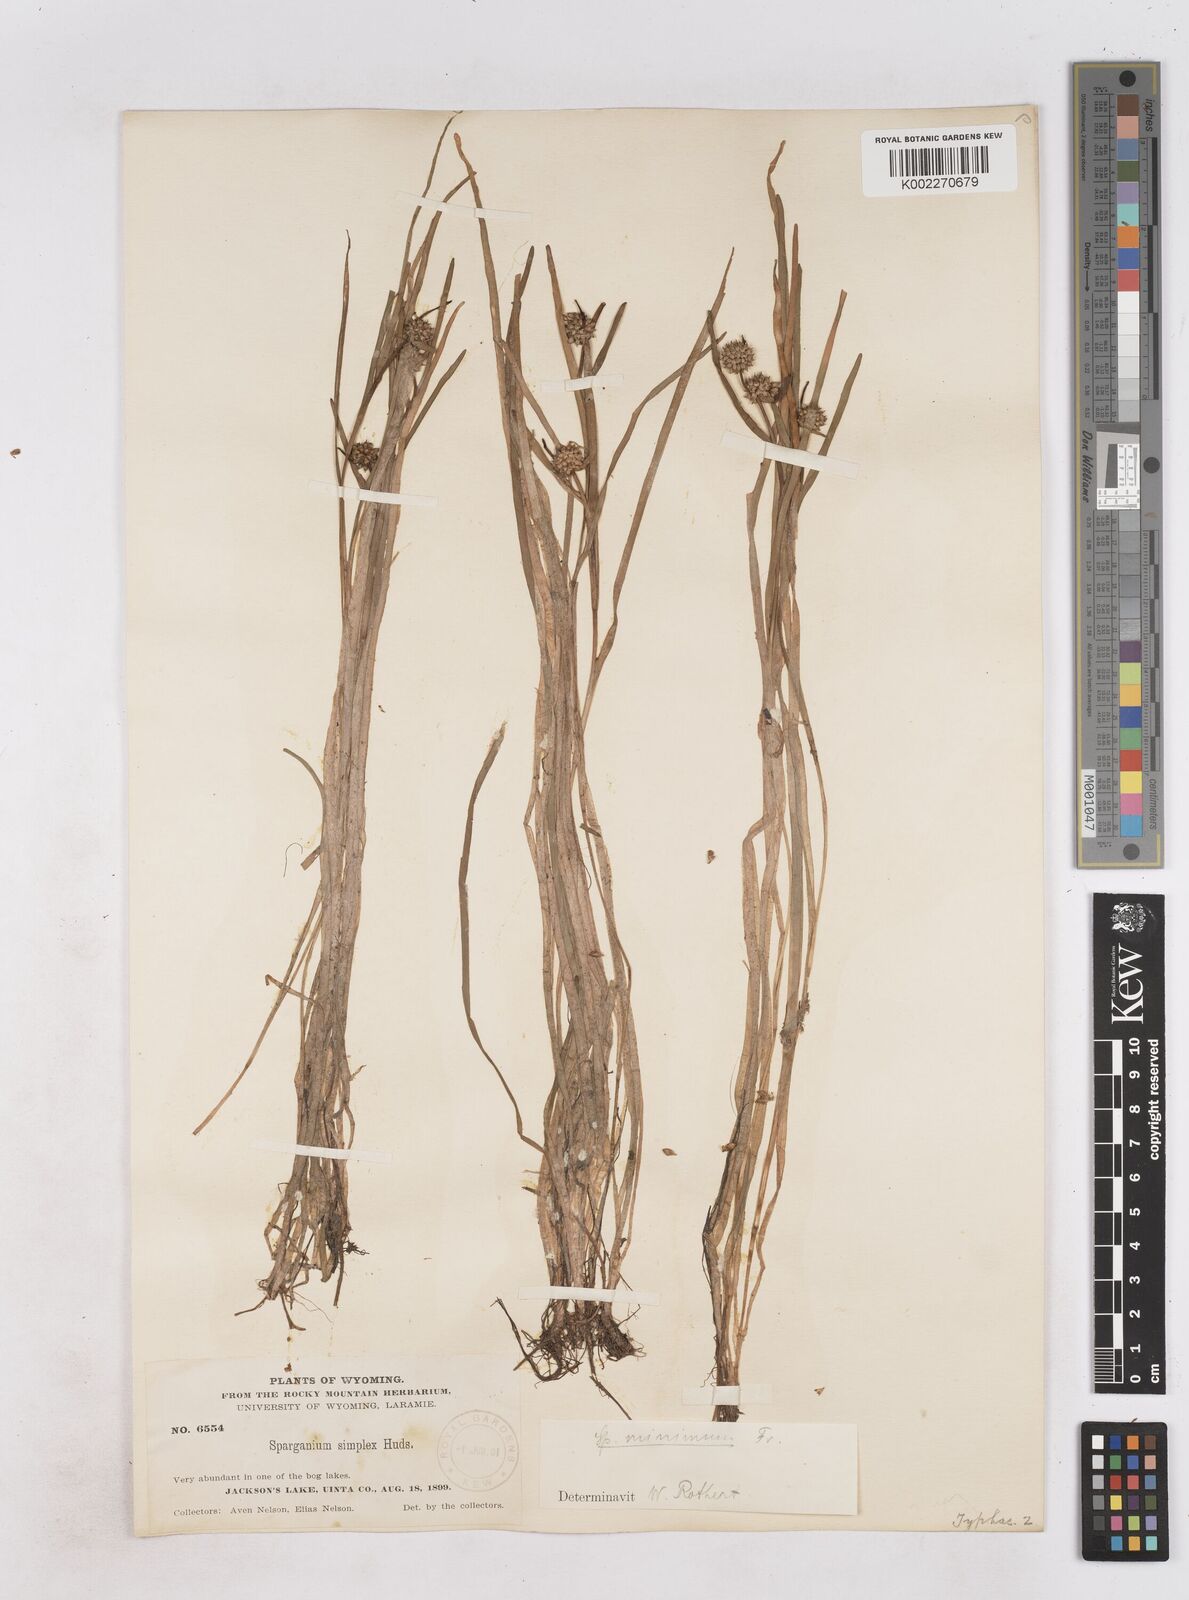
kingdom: Plantae
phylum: Tracheophyta
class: Liliopsida
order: Poales
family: Typhaceae
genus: Sparganium
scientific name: Sparganium natans
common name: Least bur-reed
